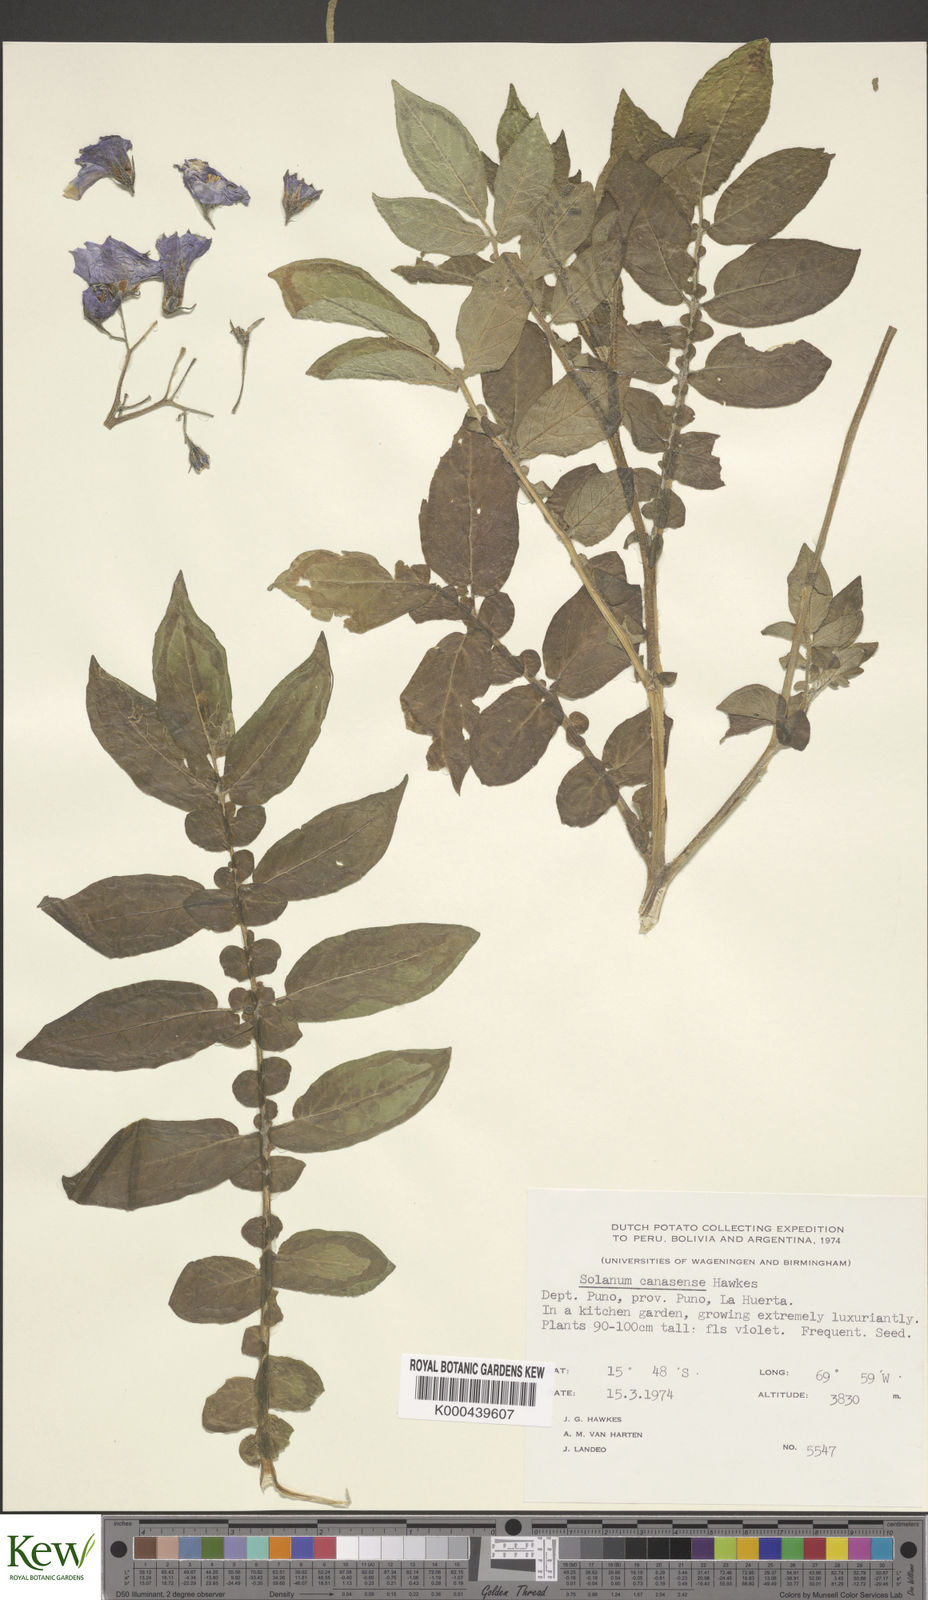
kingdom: Plantae
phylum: Tracheophyta
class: Magnoliopsida
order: Solanales
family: Solanaceae
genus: Solanum
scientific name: Solanum candolleanum
